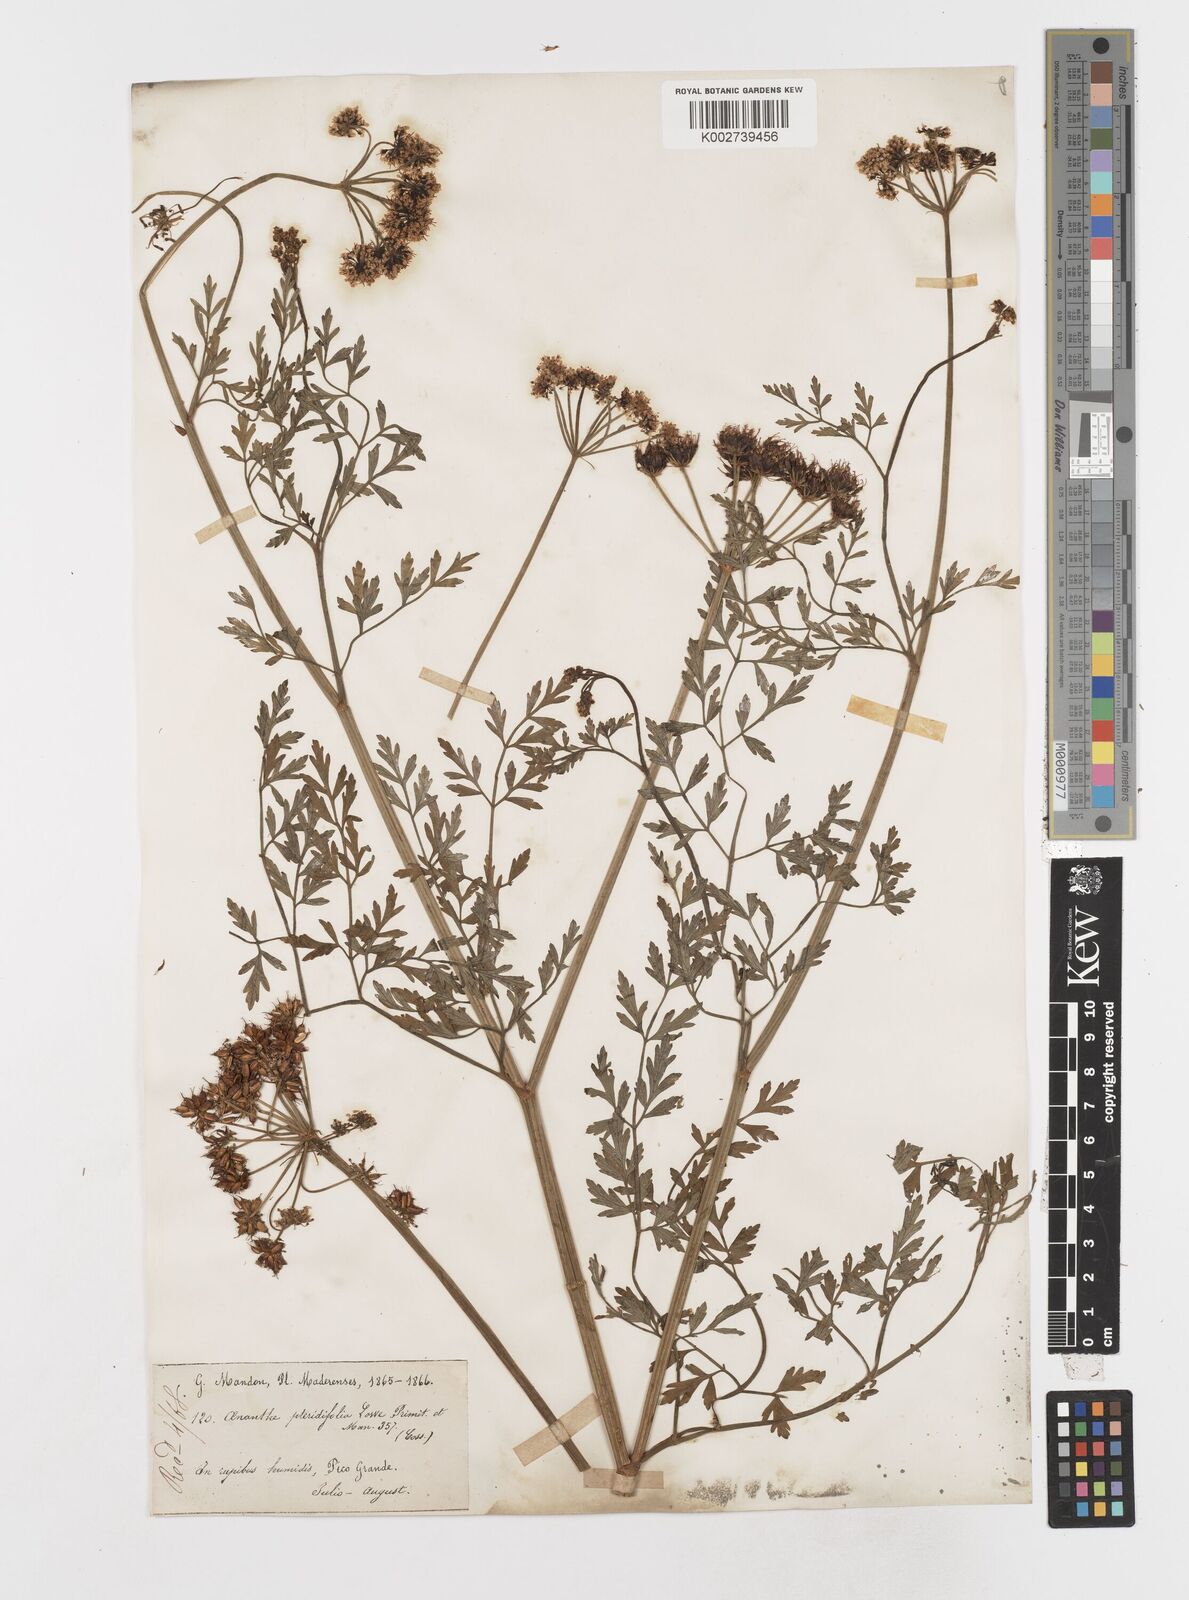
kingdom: Plantae
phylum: Tracheophyta
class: Magnoliopsida
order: Apiales
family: Apiaceae
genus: Oenanthe
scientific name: Oenanthe crocata
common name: Hemlock water-dropwort
